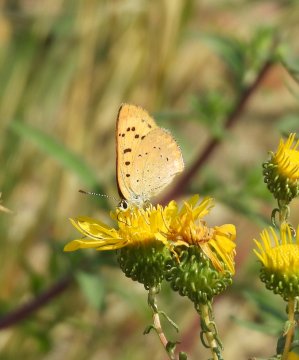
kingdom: Animalia
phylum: Arthropoda
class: Insecta
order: Lepidoptera
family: Sesiidae
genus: Sesia
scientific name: Sesia Lycaena helloides
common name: Purplish Copper
